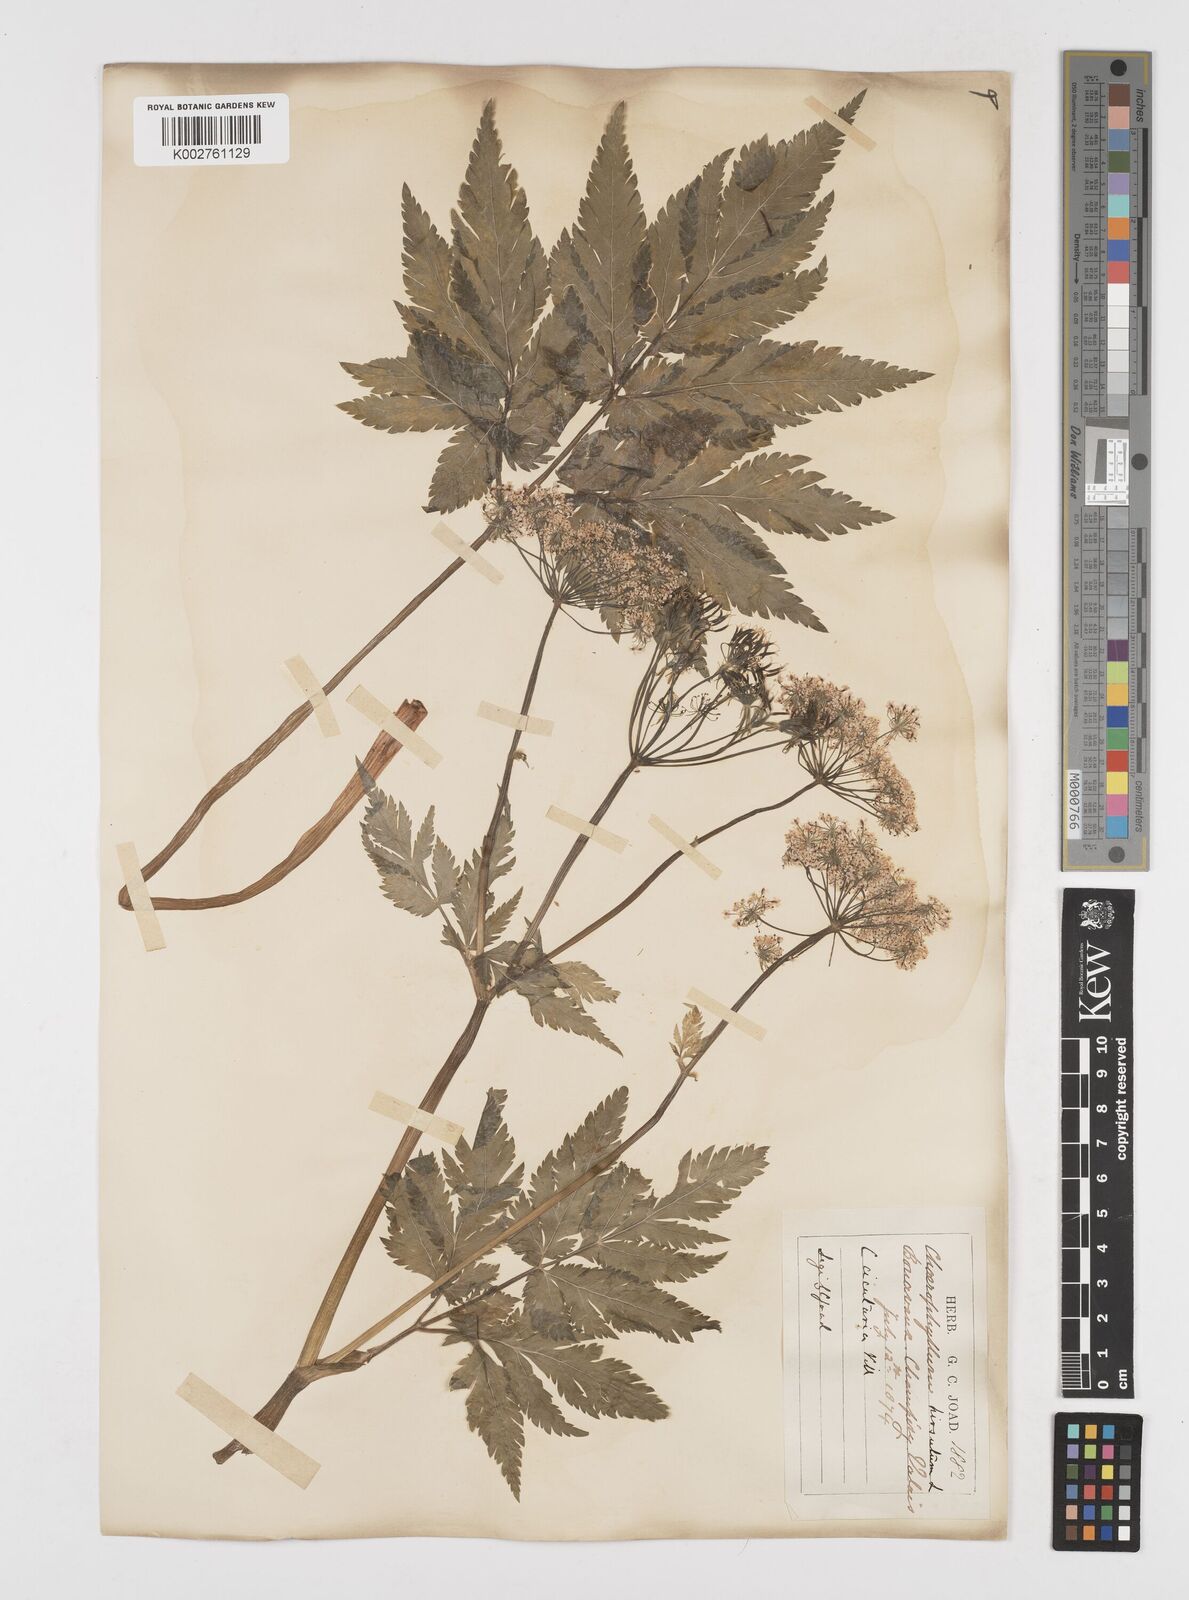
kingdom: Plantae
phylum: Tracheophyta
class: Magnoliopsida
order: Apiales
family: Apiaceae
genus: Chaerophyllum
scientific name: Chaerophyllum hirsutum
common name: Hairy chervil
